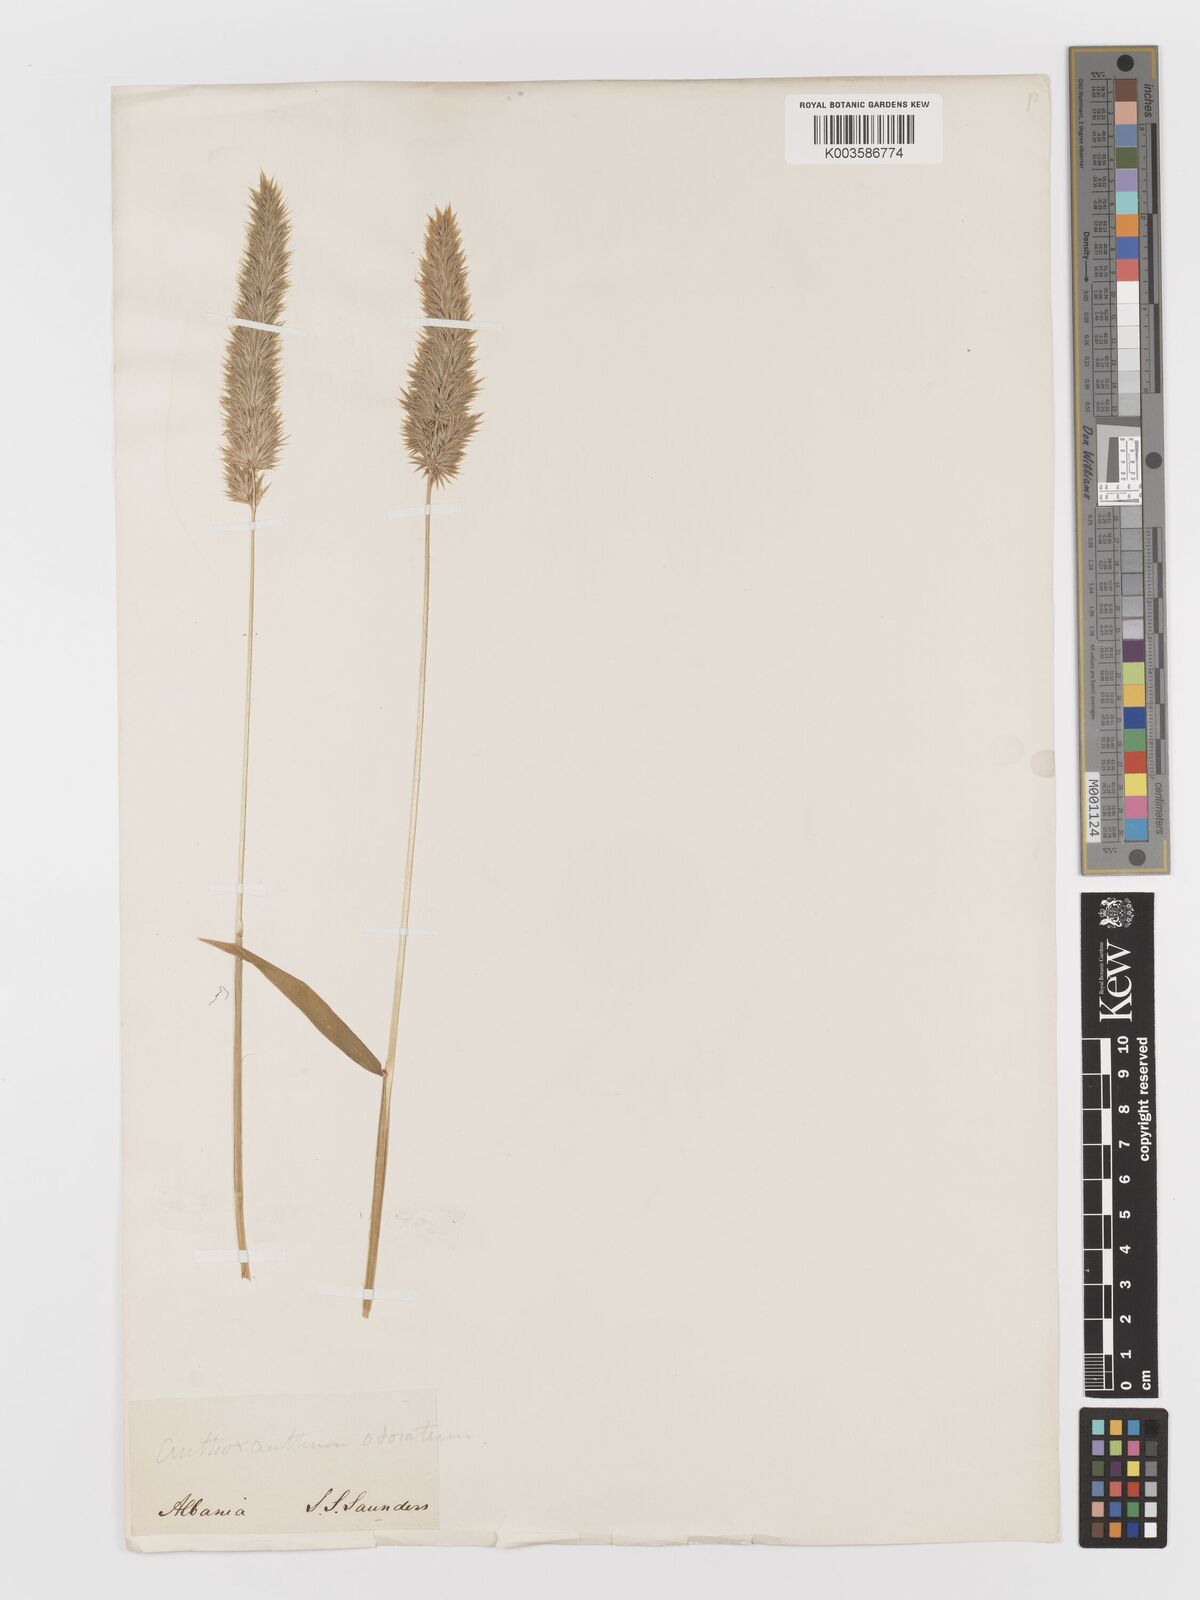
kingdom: Plantae
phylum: Tracheophyta
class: Liliopsida
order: Poales
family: Poaceae
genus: Anthoxanthum
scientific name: Anthoxanthum odoratum
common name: Sweet vernalgrass
